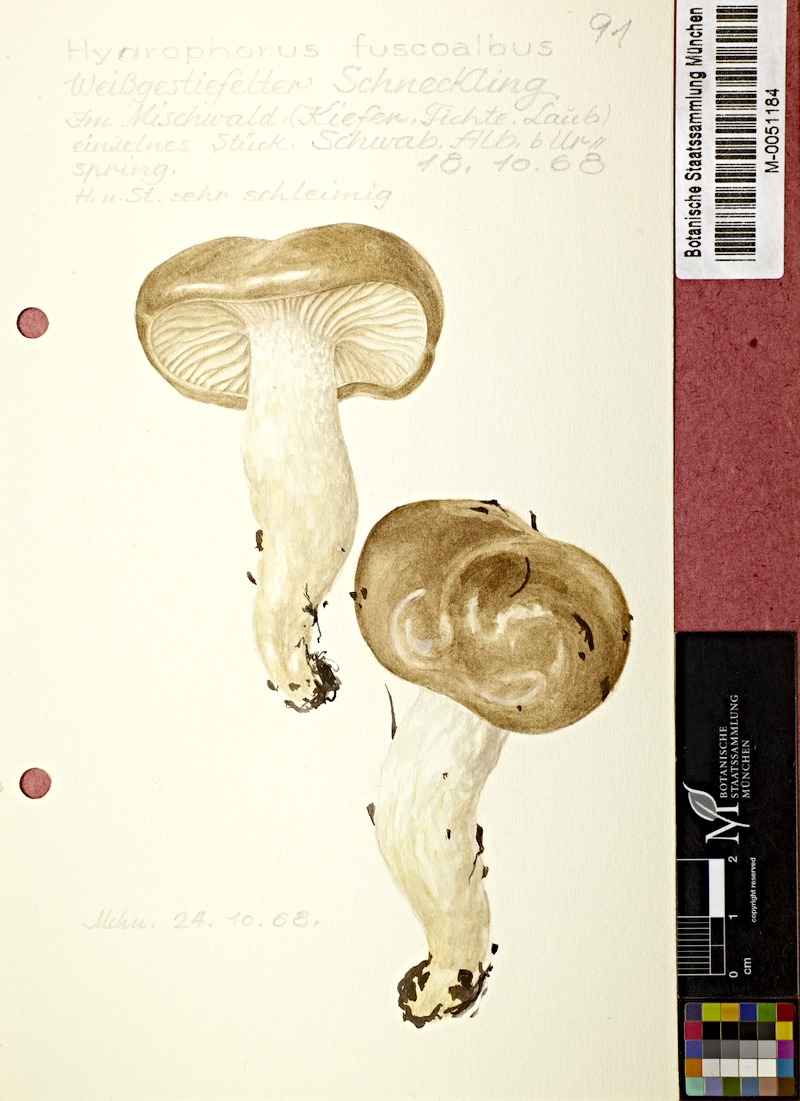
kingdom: Fungi
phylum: Basidiomycota
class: Agaricomycetes
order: Agaricales
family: Hygrophoraceae
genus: Hygrophorus
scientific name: Hygrophorus fuscoalbus
